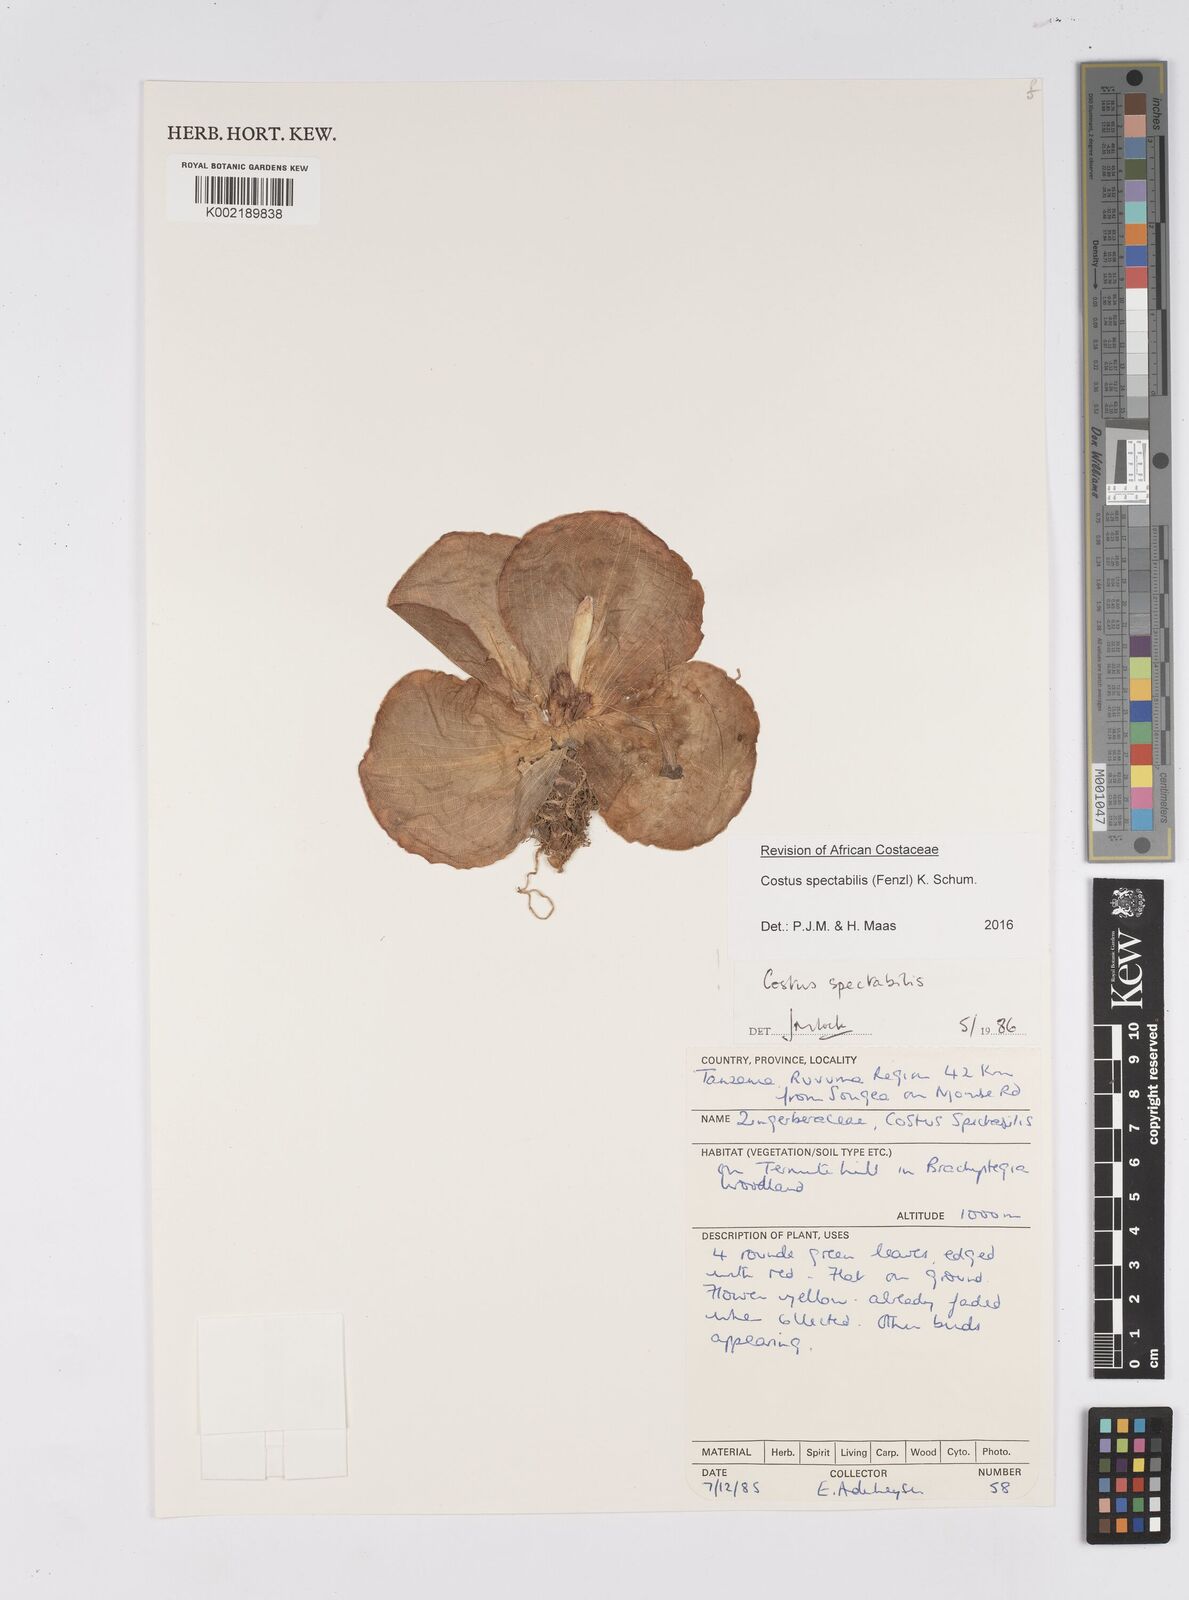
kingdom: Plantae
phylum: Tracheophyta
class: Liliopsida
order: Zingiberales
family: Costaceae
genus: Costus
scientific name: Costus spectabilis
